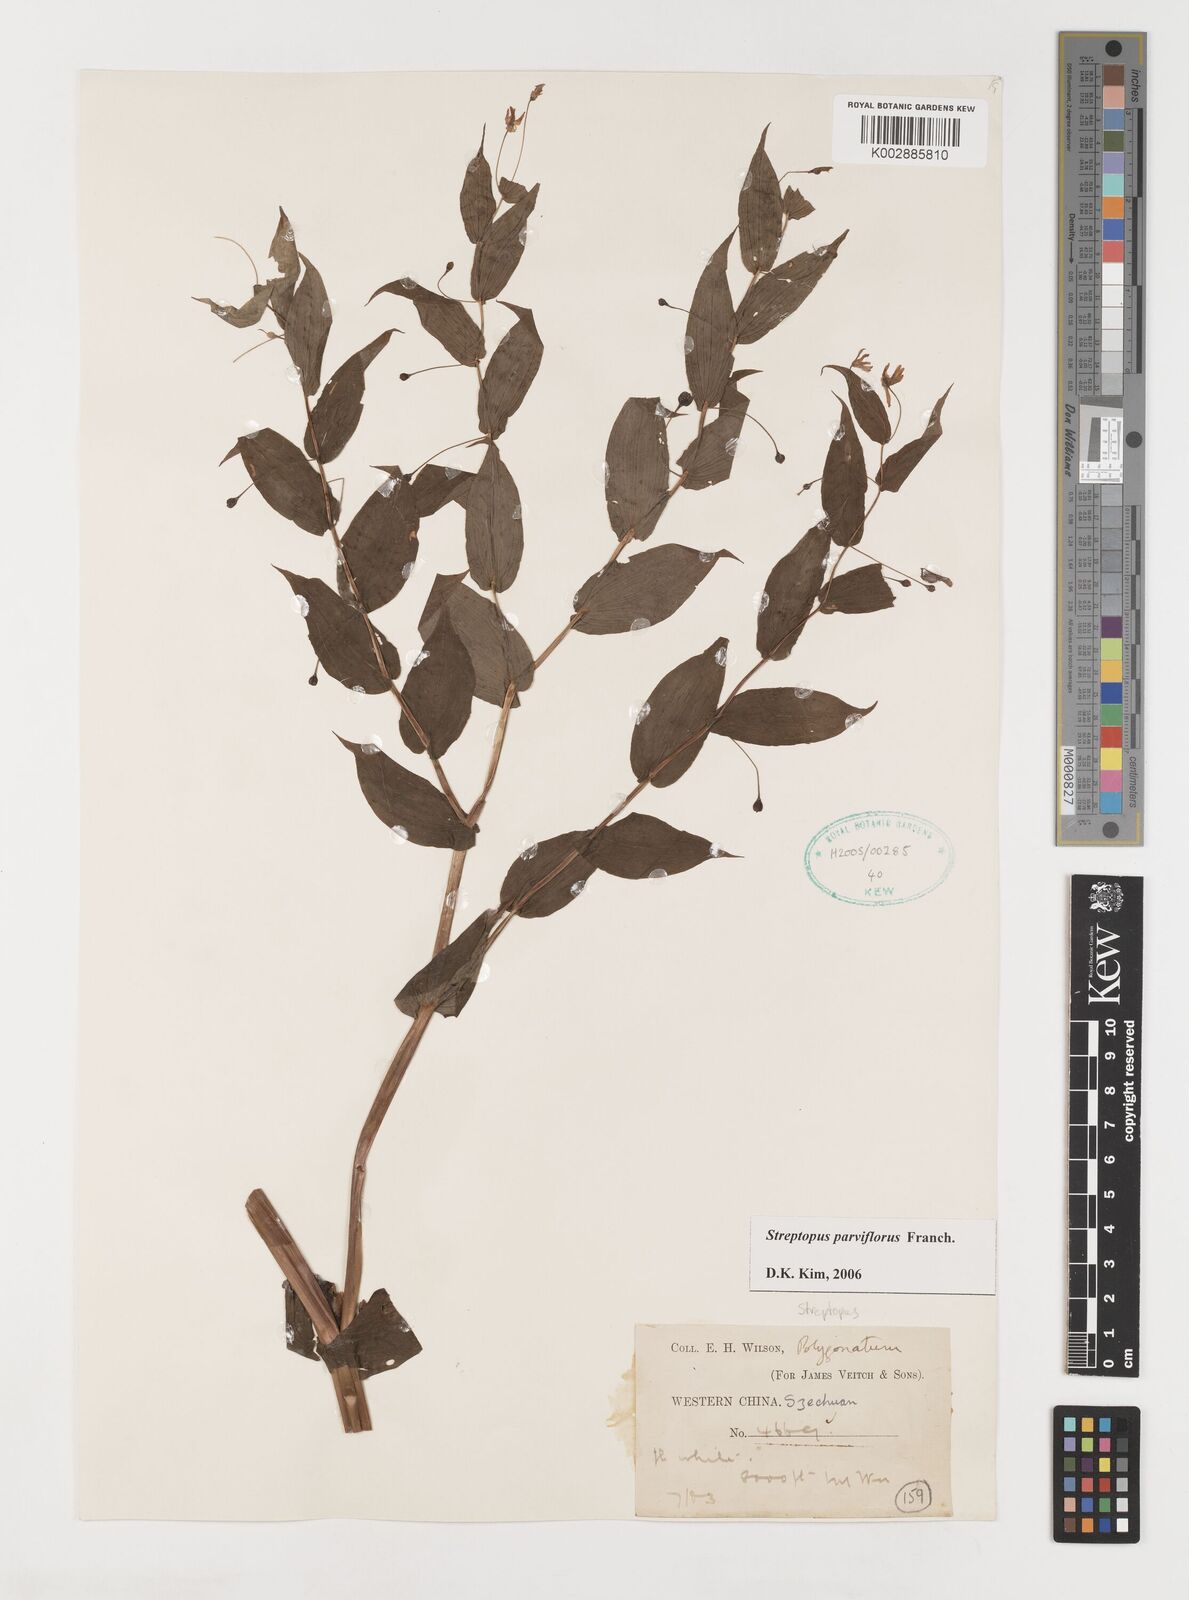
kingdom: Plantae
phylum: Tracheophyta
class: Liliopsida
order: Liliales
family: Liliaceae
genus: Streptopus
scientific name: Streptopus parviflorus
